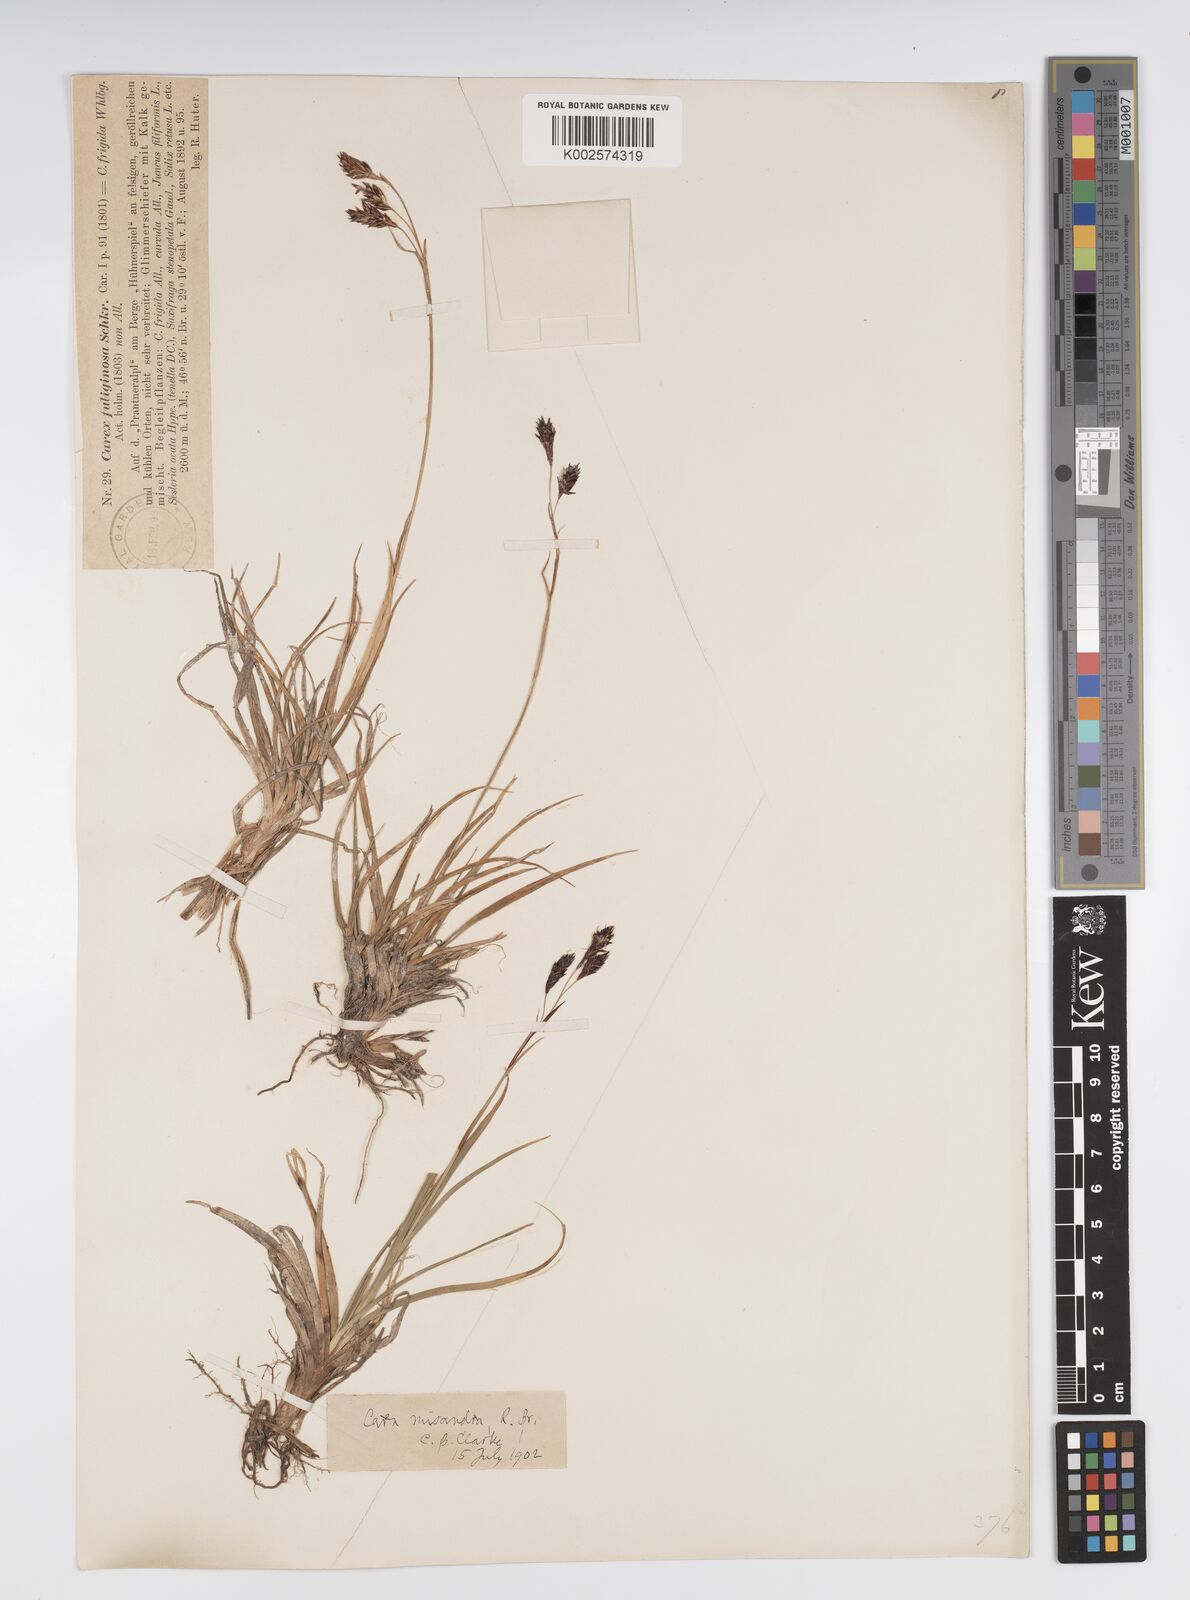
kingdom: Plantae
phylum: Tracheophyta
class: Liliopsida
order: Poales
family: Cyperaceae
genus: Carex
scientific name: Carex fuliginosa
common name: Few-flowered sedge
